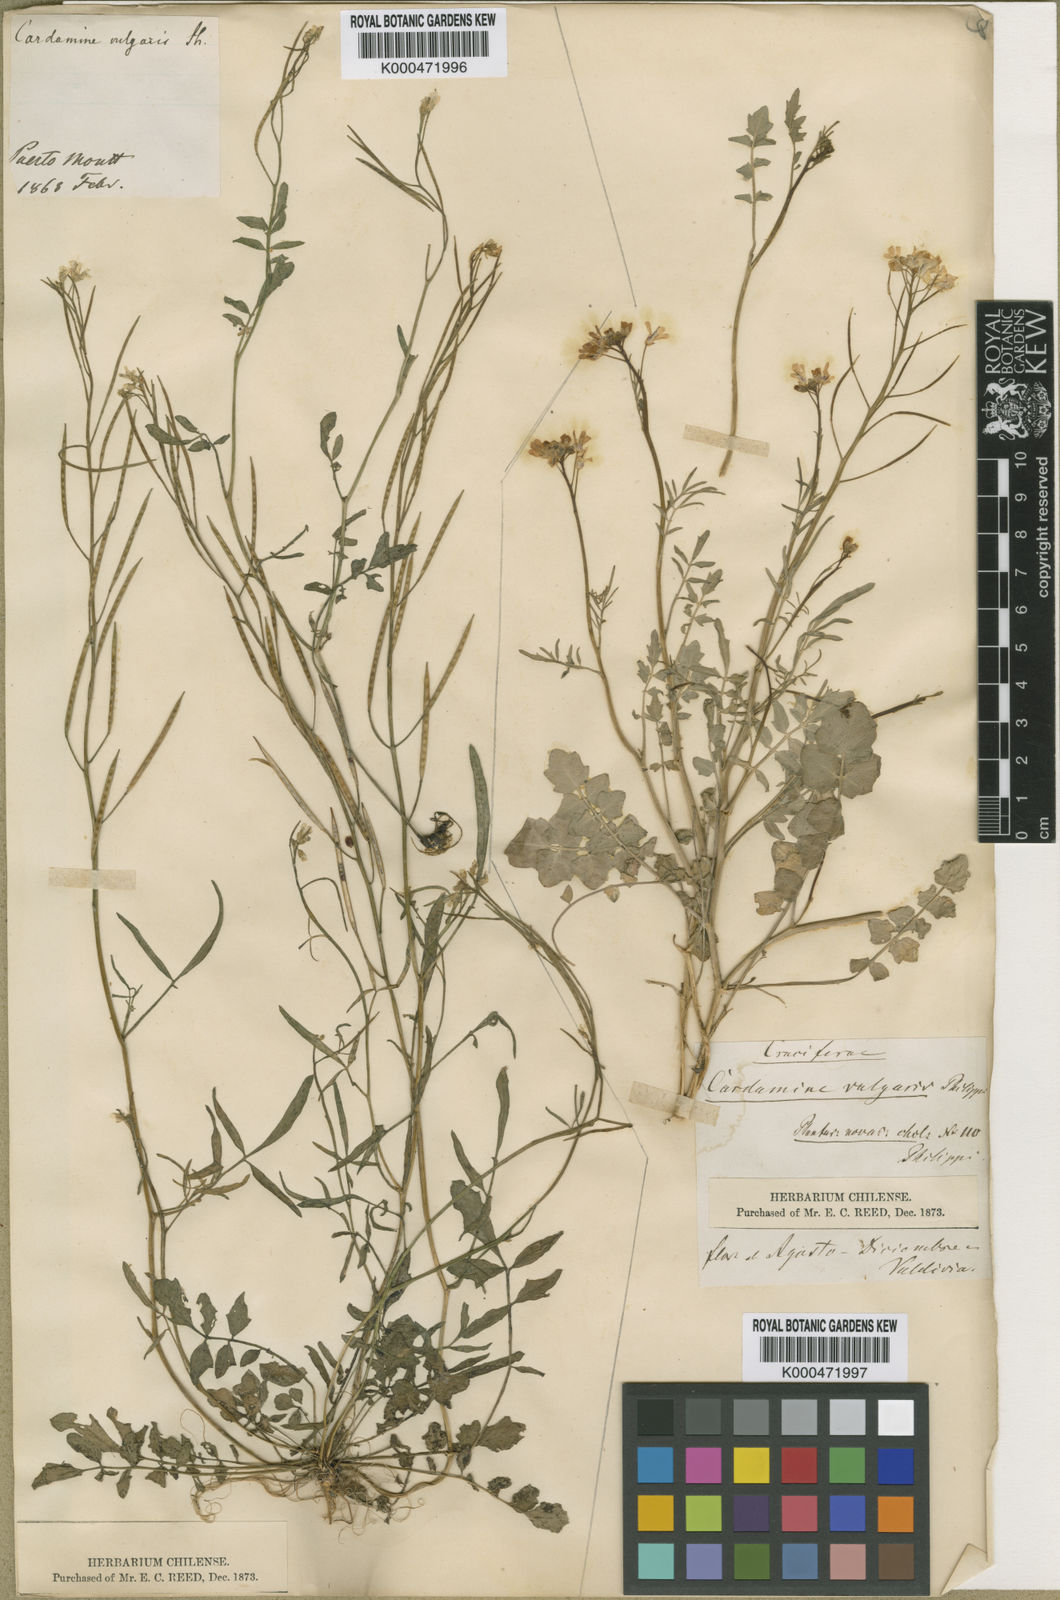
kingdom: Plantae
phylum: Tracheophyta
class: Magnoliopsida
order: Brassicales
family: Brassicaceae
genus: Cardamine
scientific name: Cardamine vulgaris
